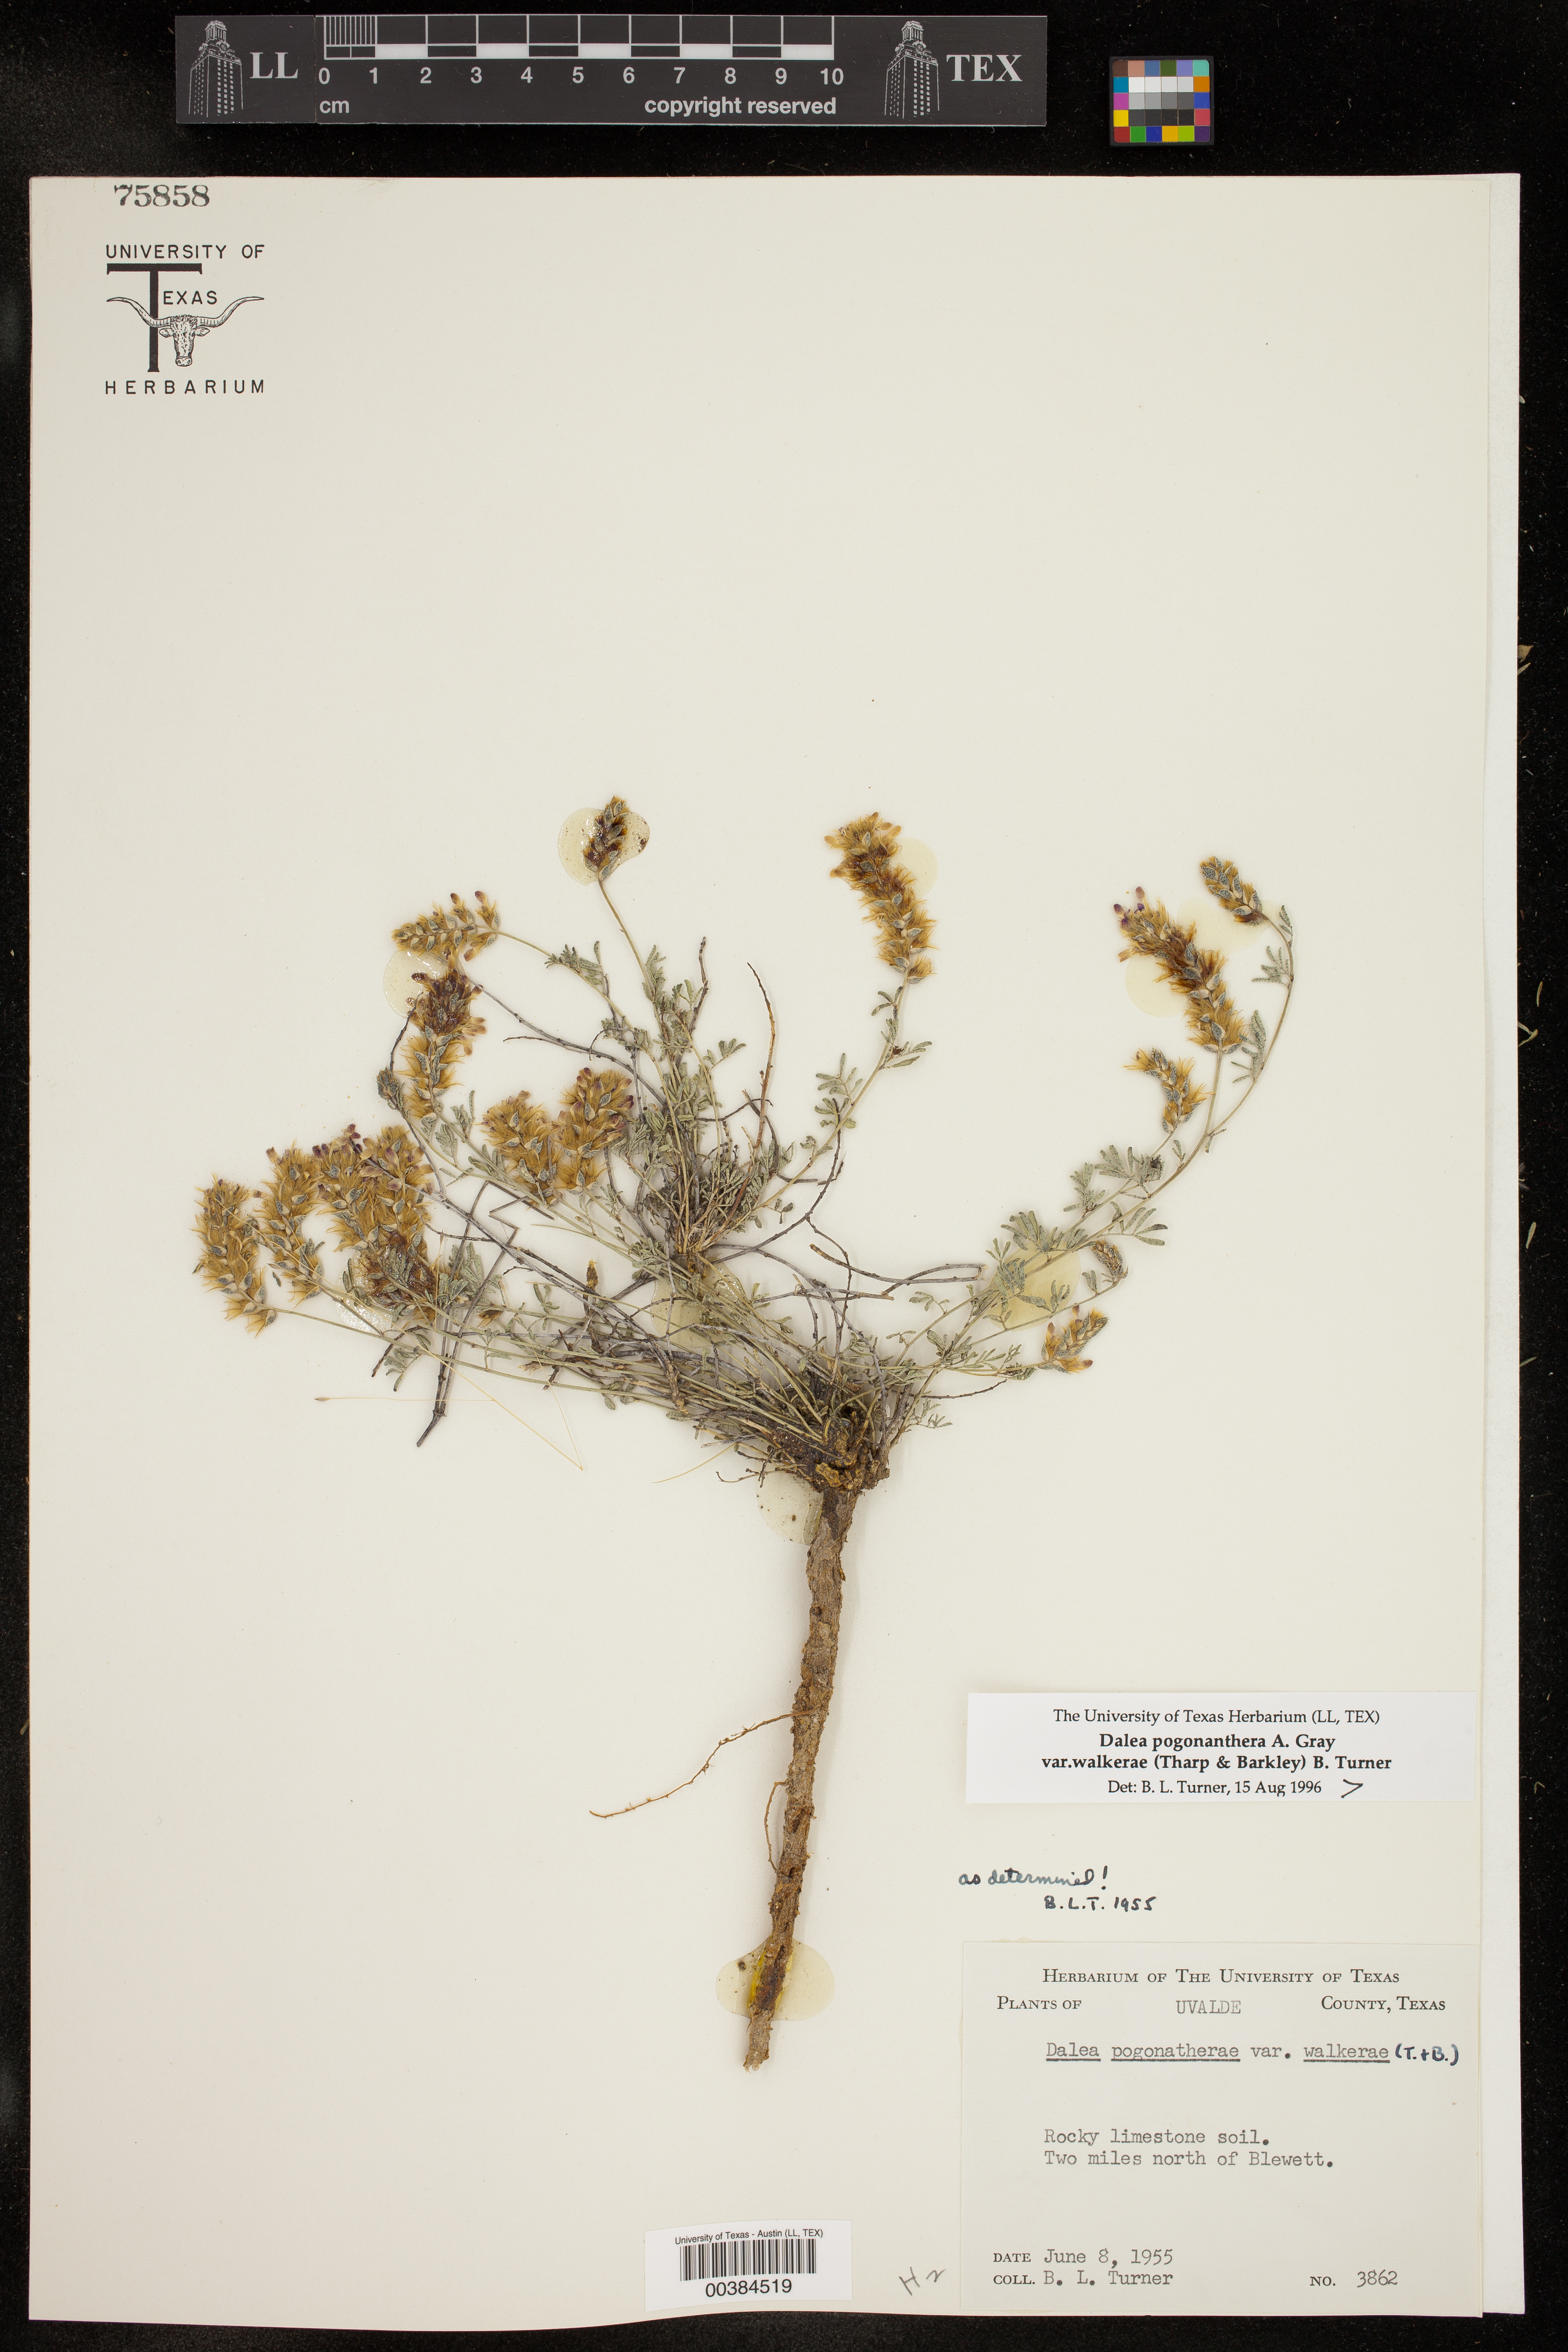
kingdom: Plantae
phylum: Tracheophyta
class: Magnoliopsida
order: Fabales
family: Fabaceae
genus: Dalea
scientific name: Dalea pogonathera
